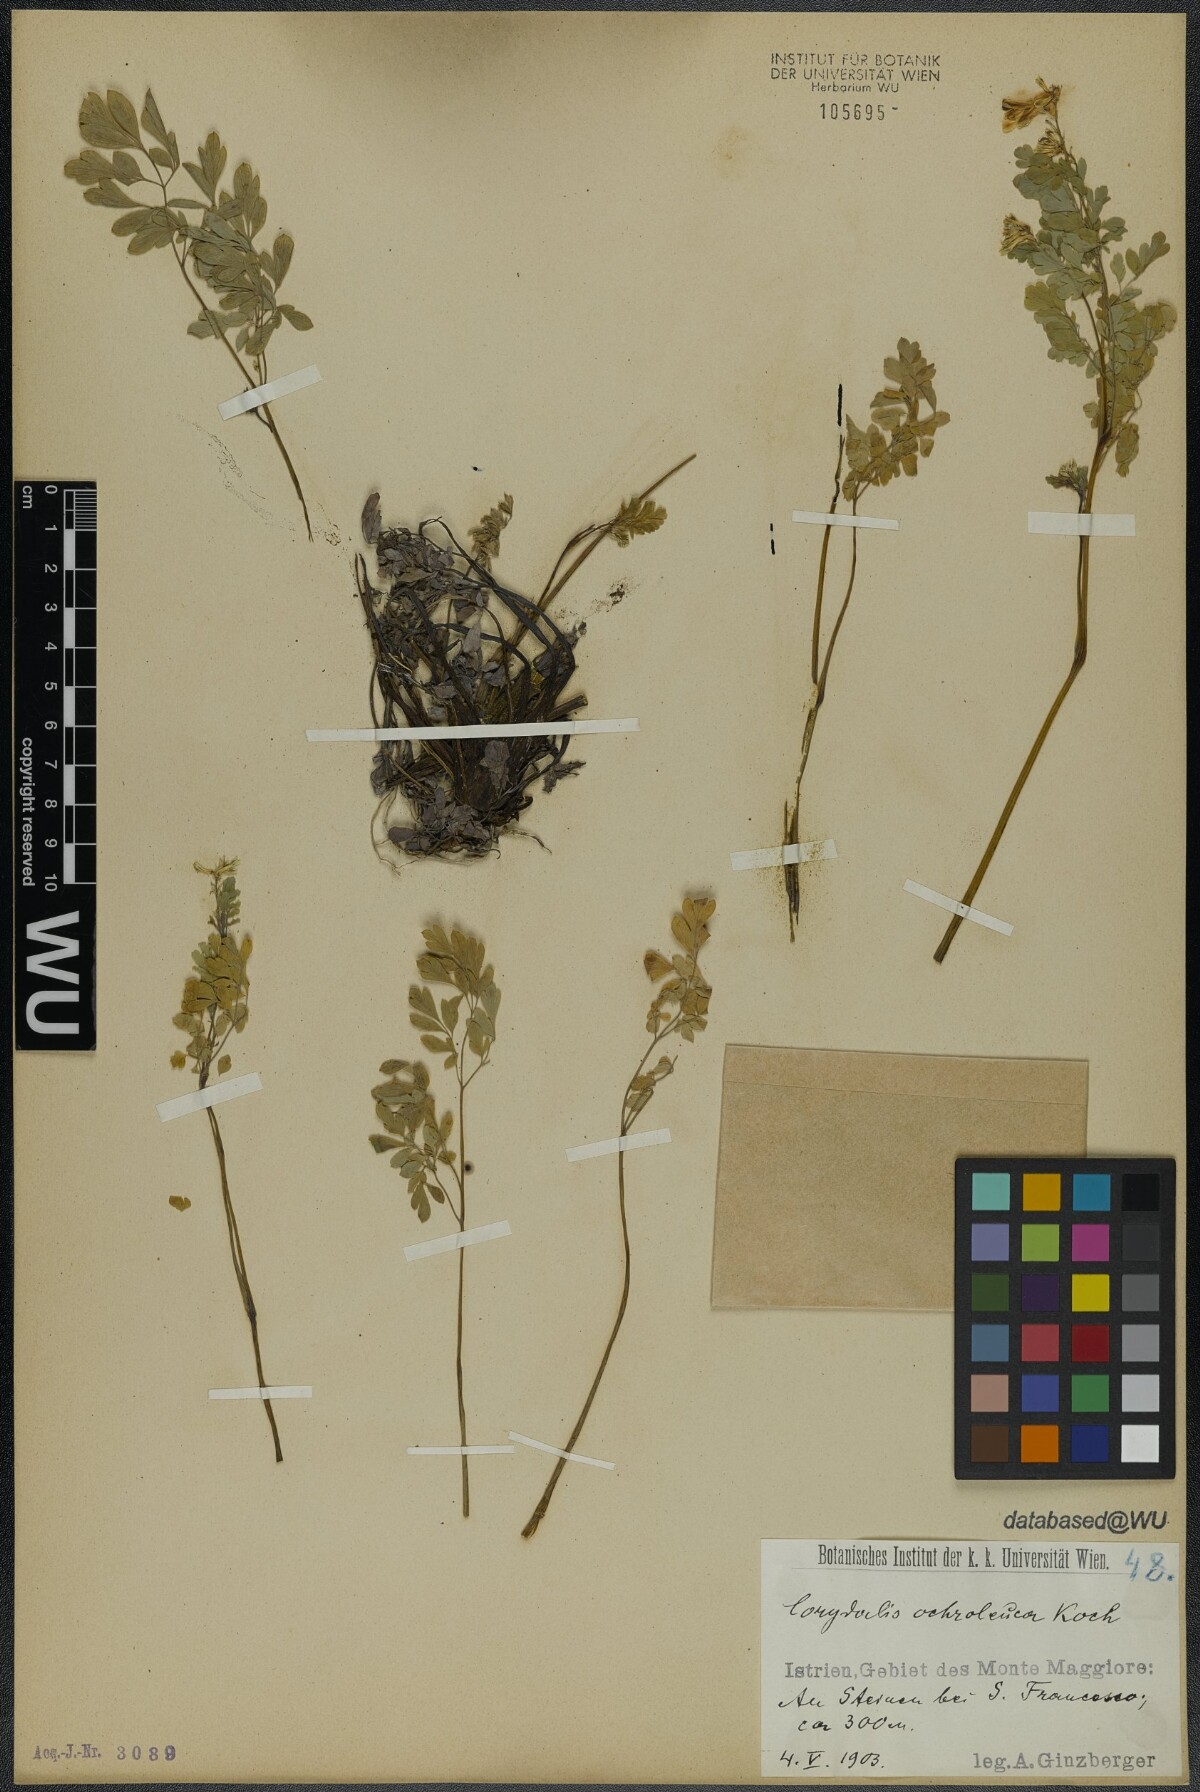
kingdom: Plantae
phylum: Tracheophyta
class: Magnoliopsida
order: Ranunculales
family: Papaveraceae
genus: Pseudofumaria
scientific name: Pseudofumaria alba
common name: Pale corydalis
